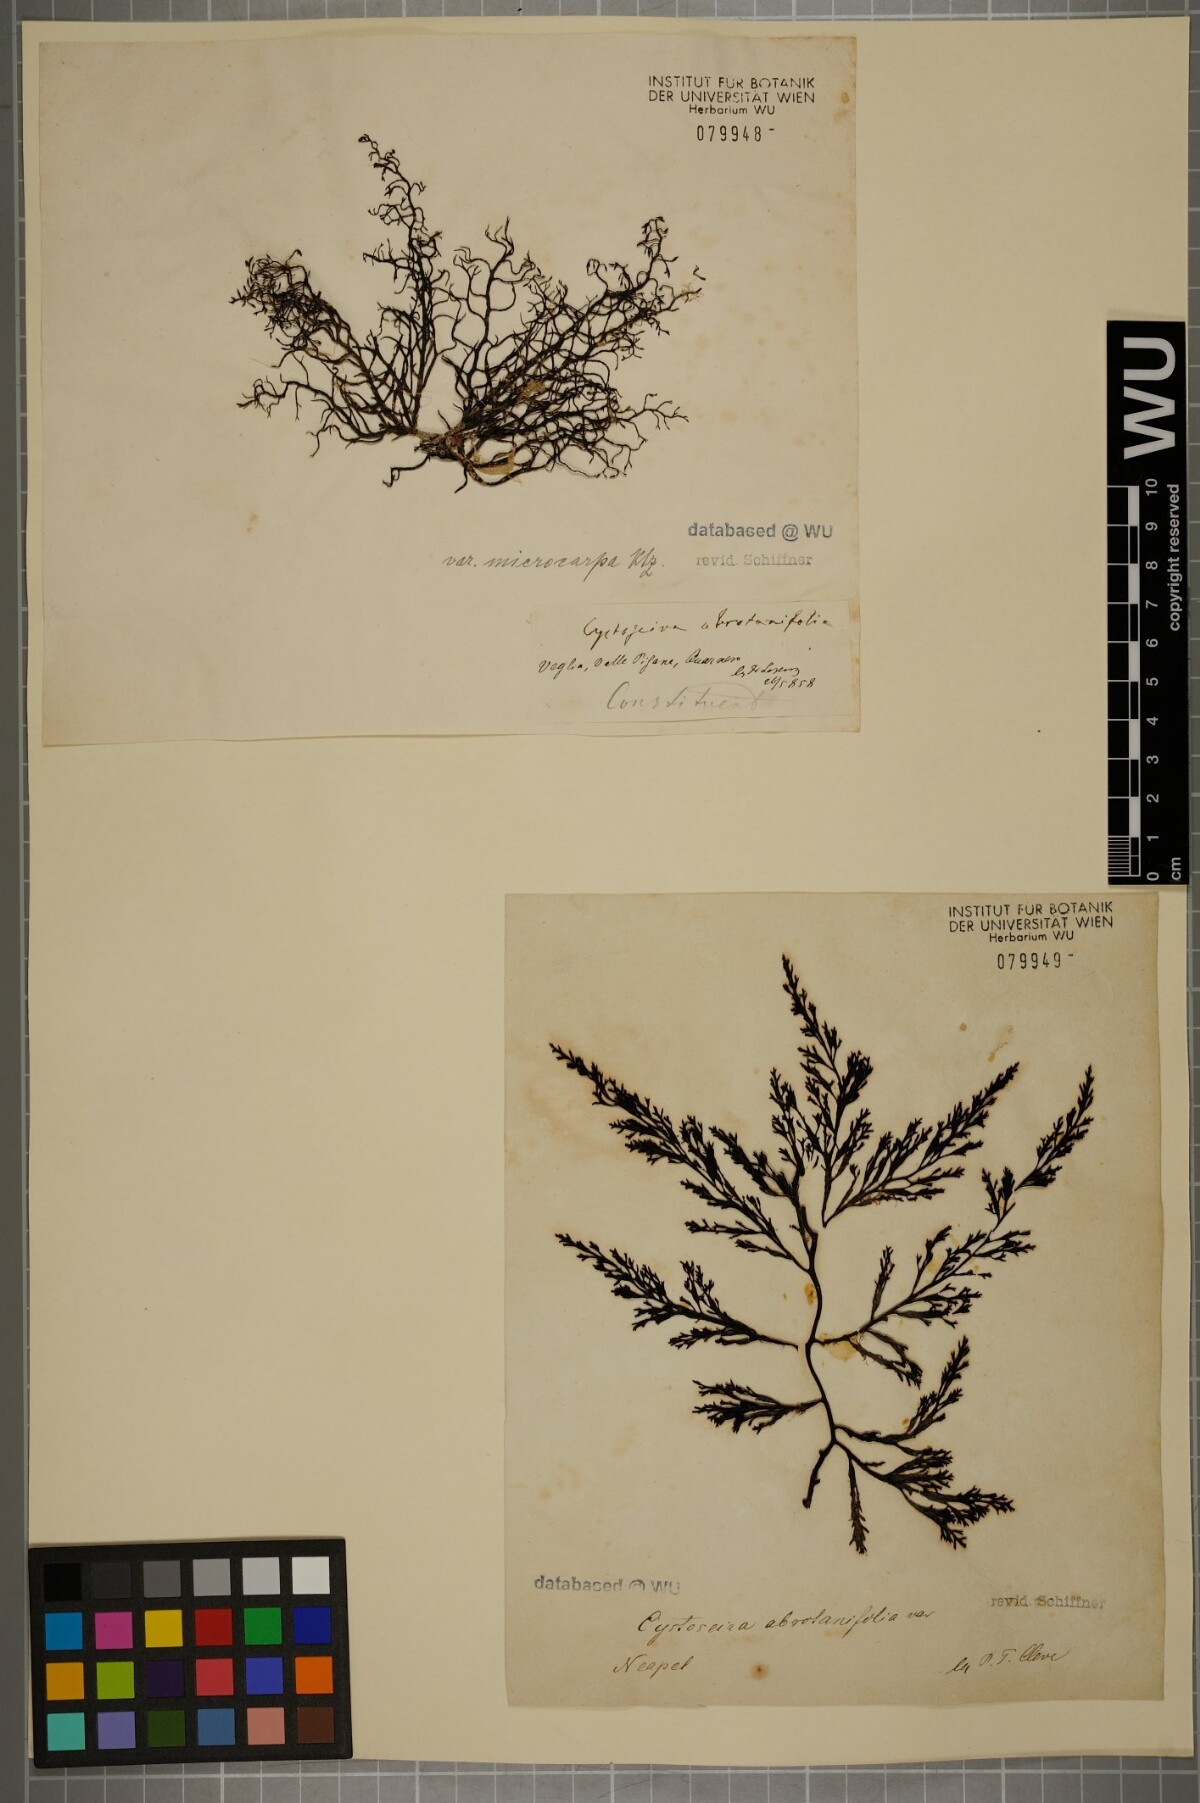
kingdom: Chromista
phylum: Ochrophyta
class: Phaeophyceae
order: Fucales
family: Sargassaceae
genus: Cystoseira
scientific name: Cystoseira foeniculacea
